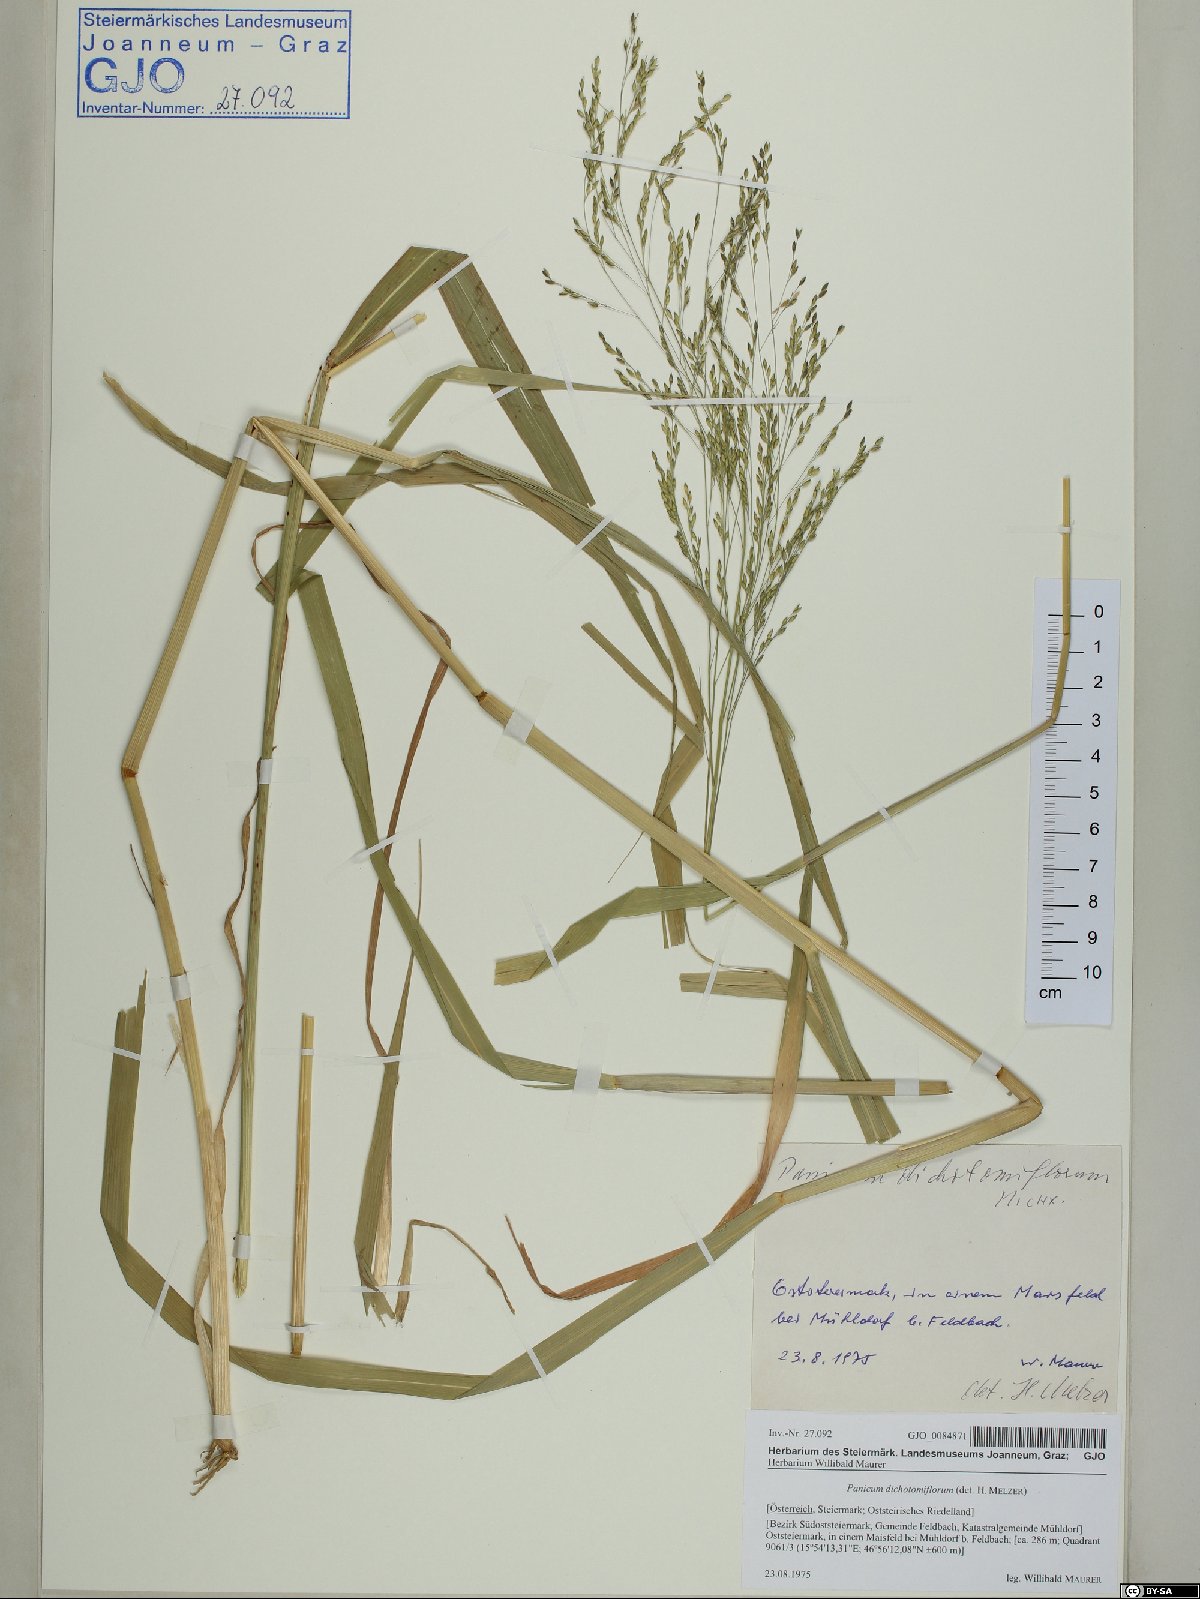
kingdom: Plantae
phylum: Tracheophyta
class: Liliopsida
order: Poales
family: Poaceae
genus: Panicum
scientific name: Panicum dichotomiflorum
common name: Autumn millet
